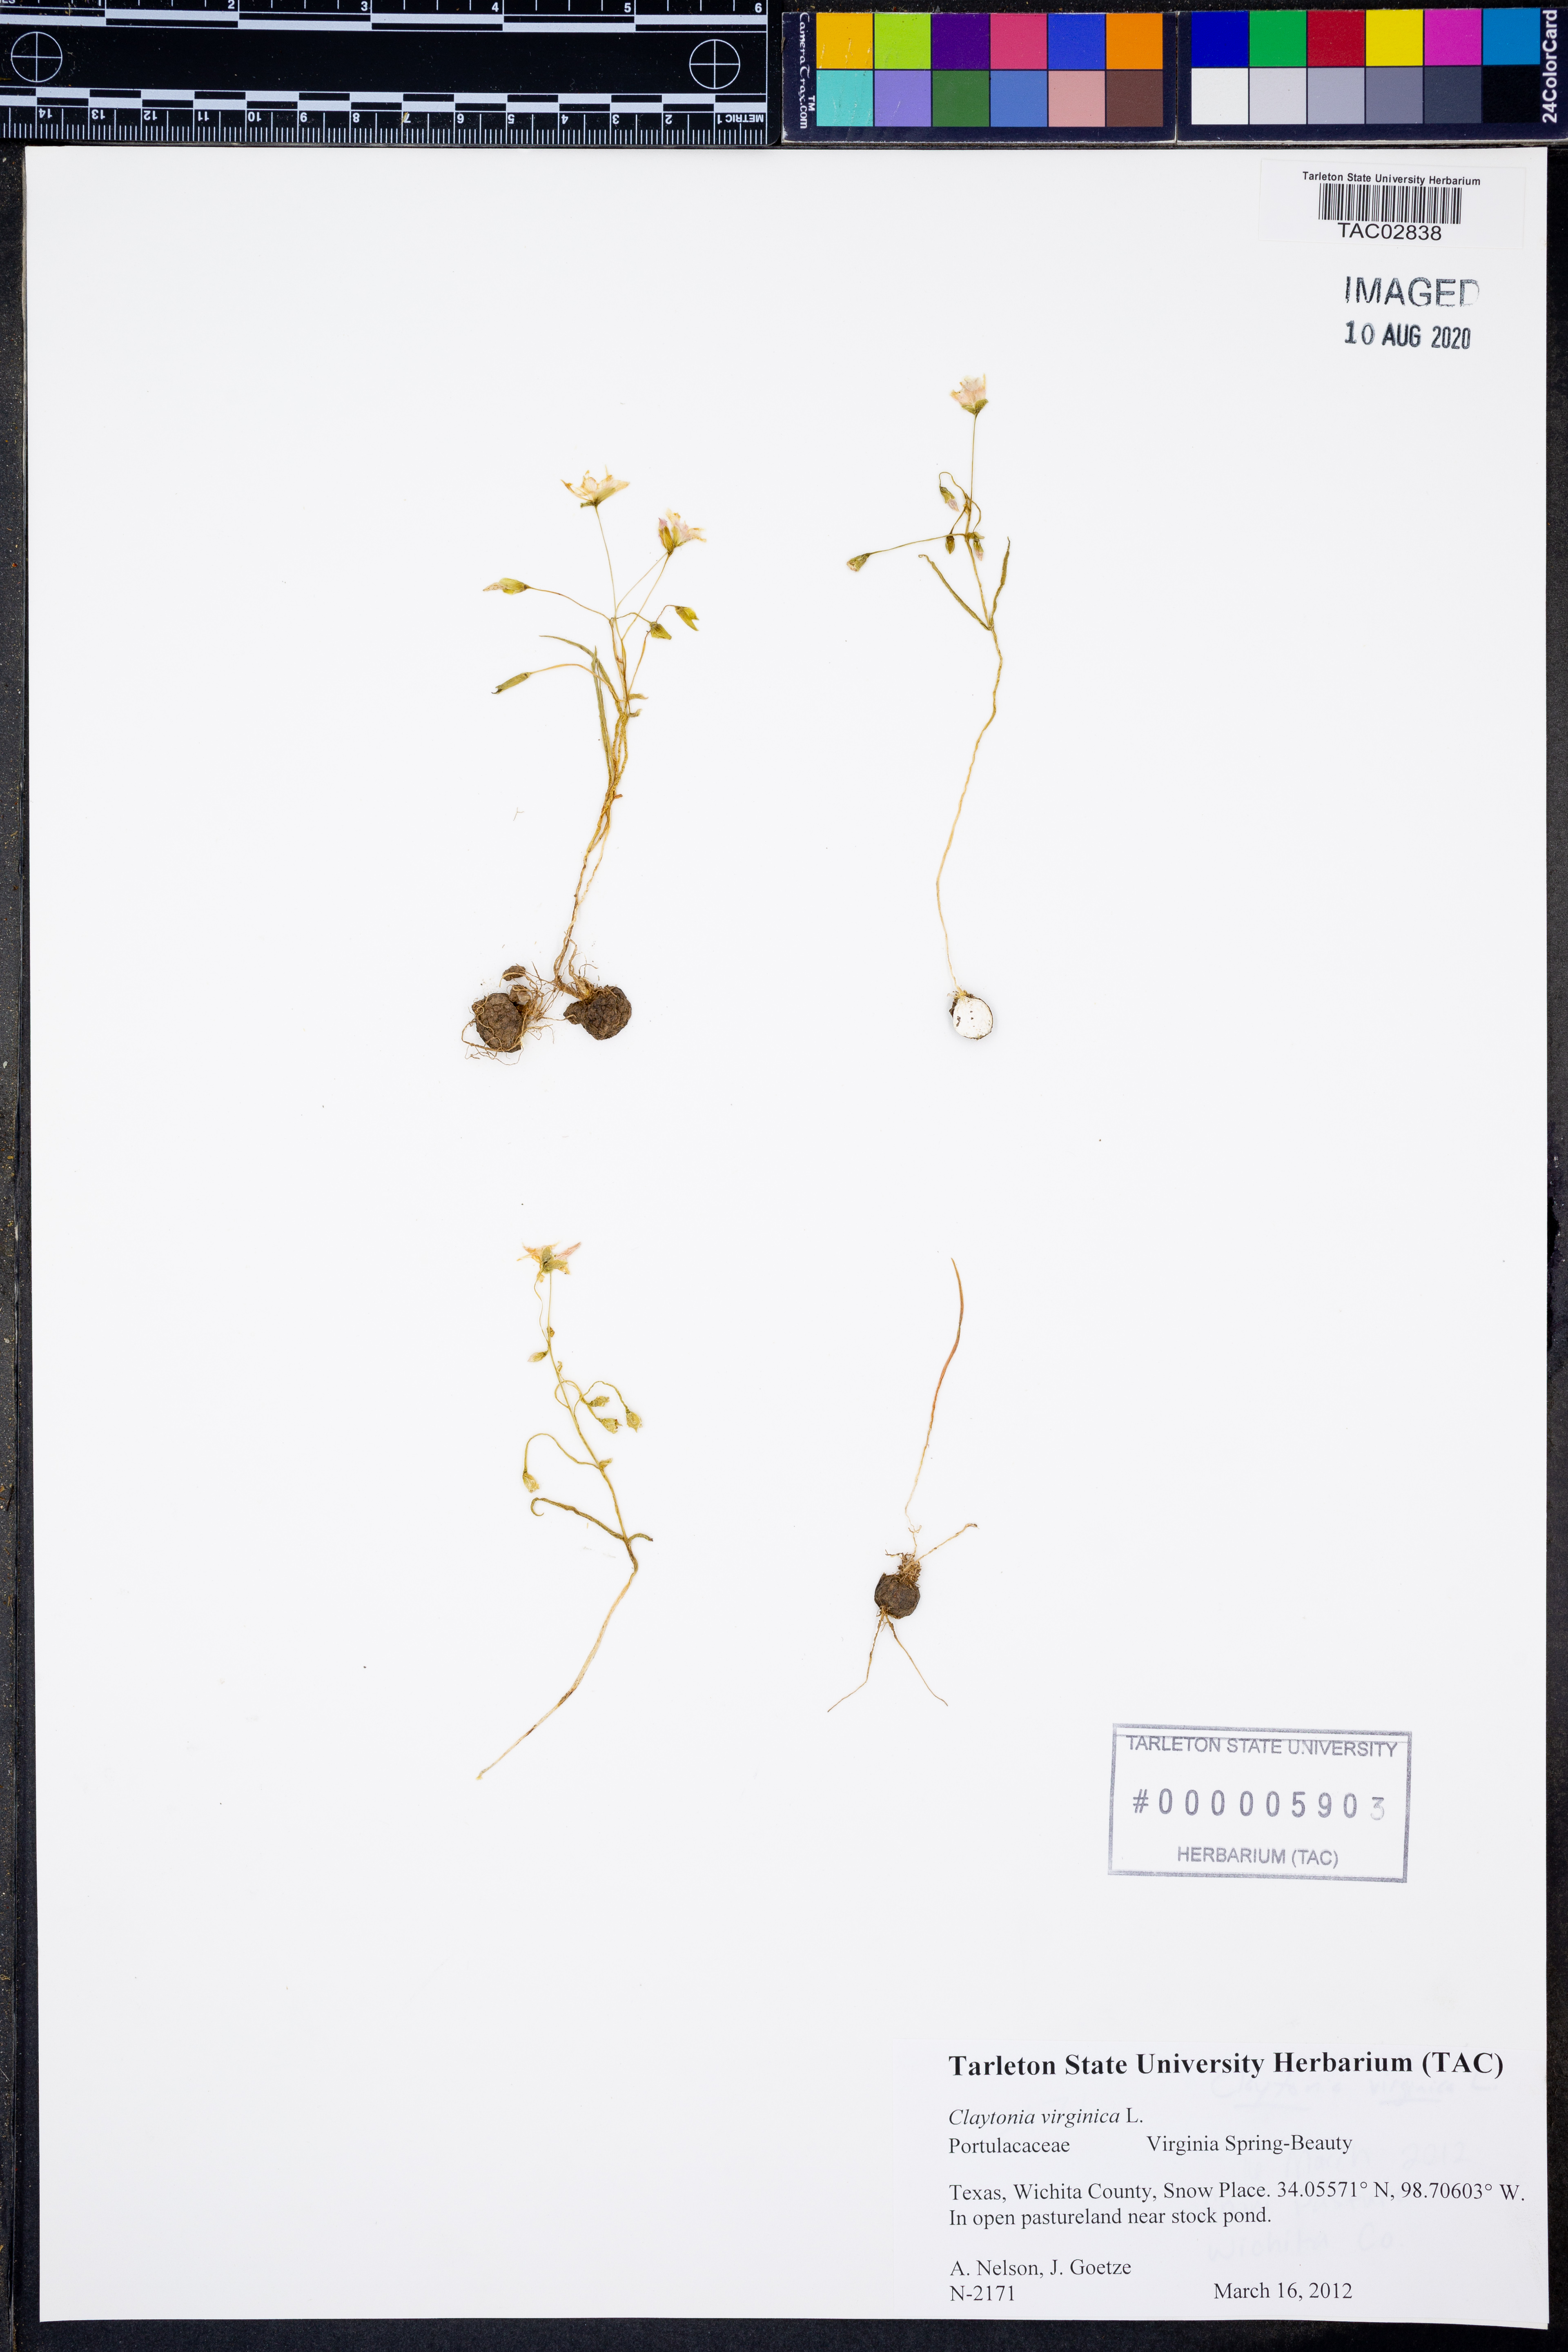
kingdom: Plantae
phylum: Tracheophyta
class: Magnoliopsida
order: Caryophyllales
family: Montiaceae
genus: Claytonia
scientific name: Claytonia virginica
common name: Virginia springbeauty
